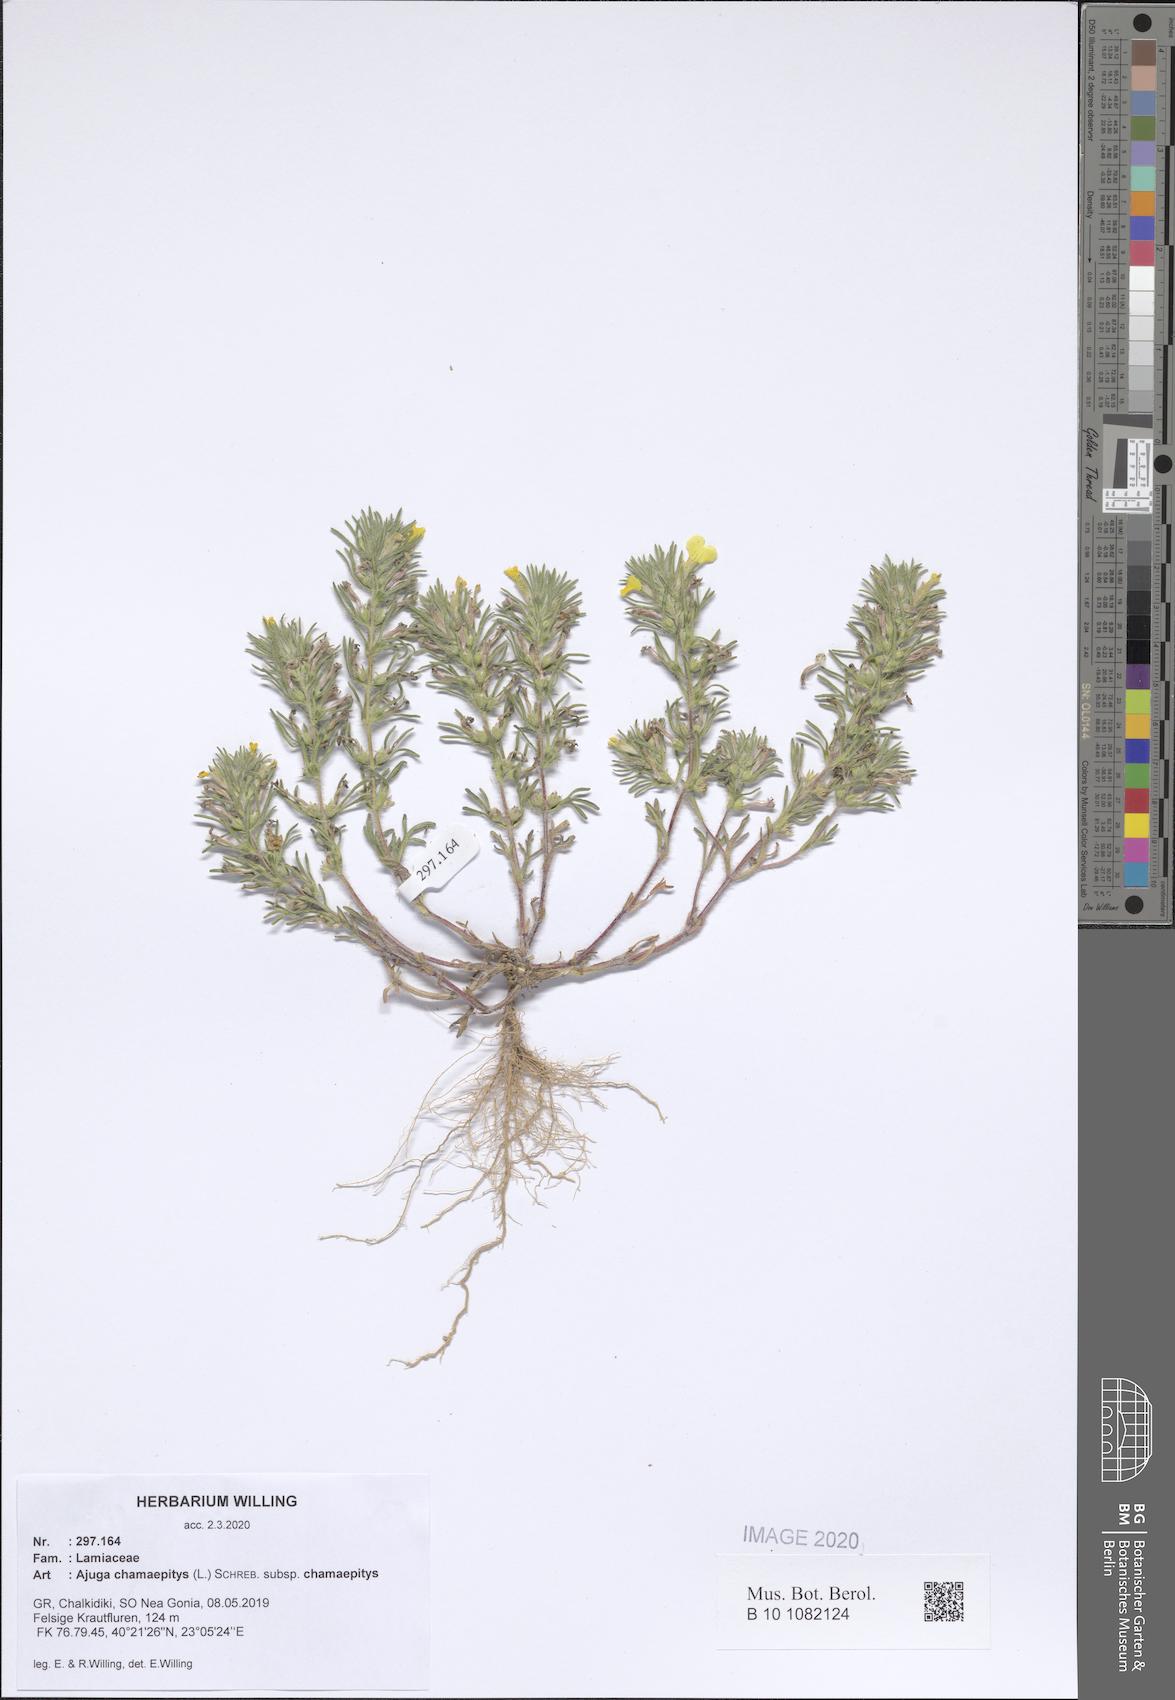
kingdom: Plantae
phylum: Tracheophyta
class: Magnoliopsida
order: Lamiales
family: Lamiaceae
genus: Ajuga
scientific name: Ajuga chamaepitys
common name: Ground-pine
